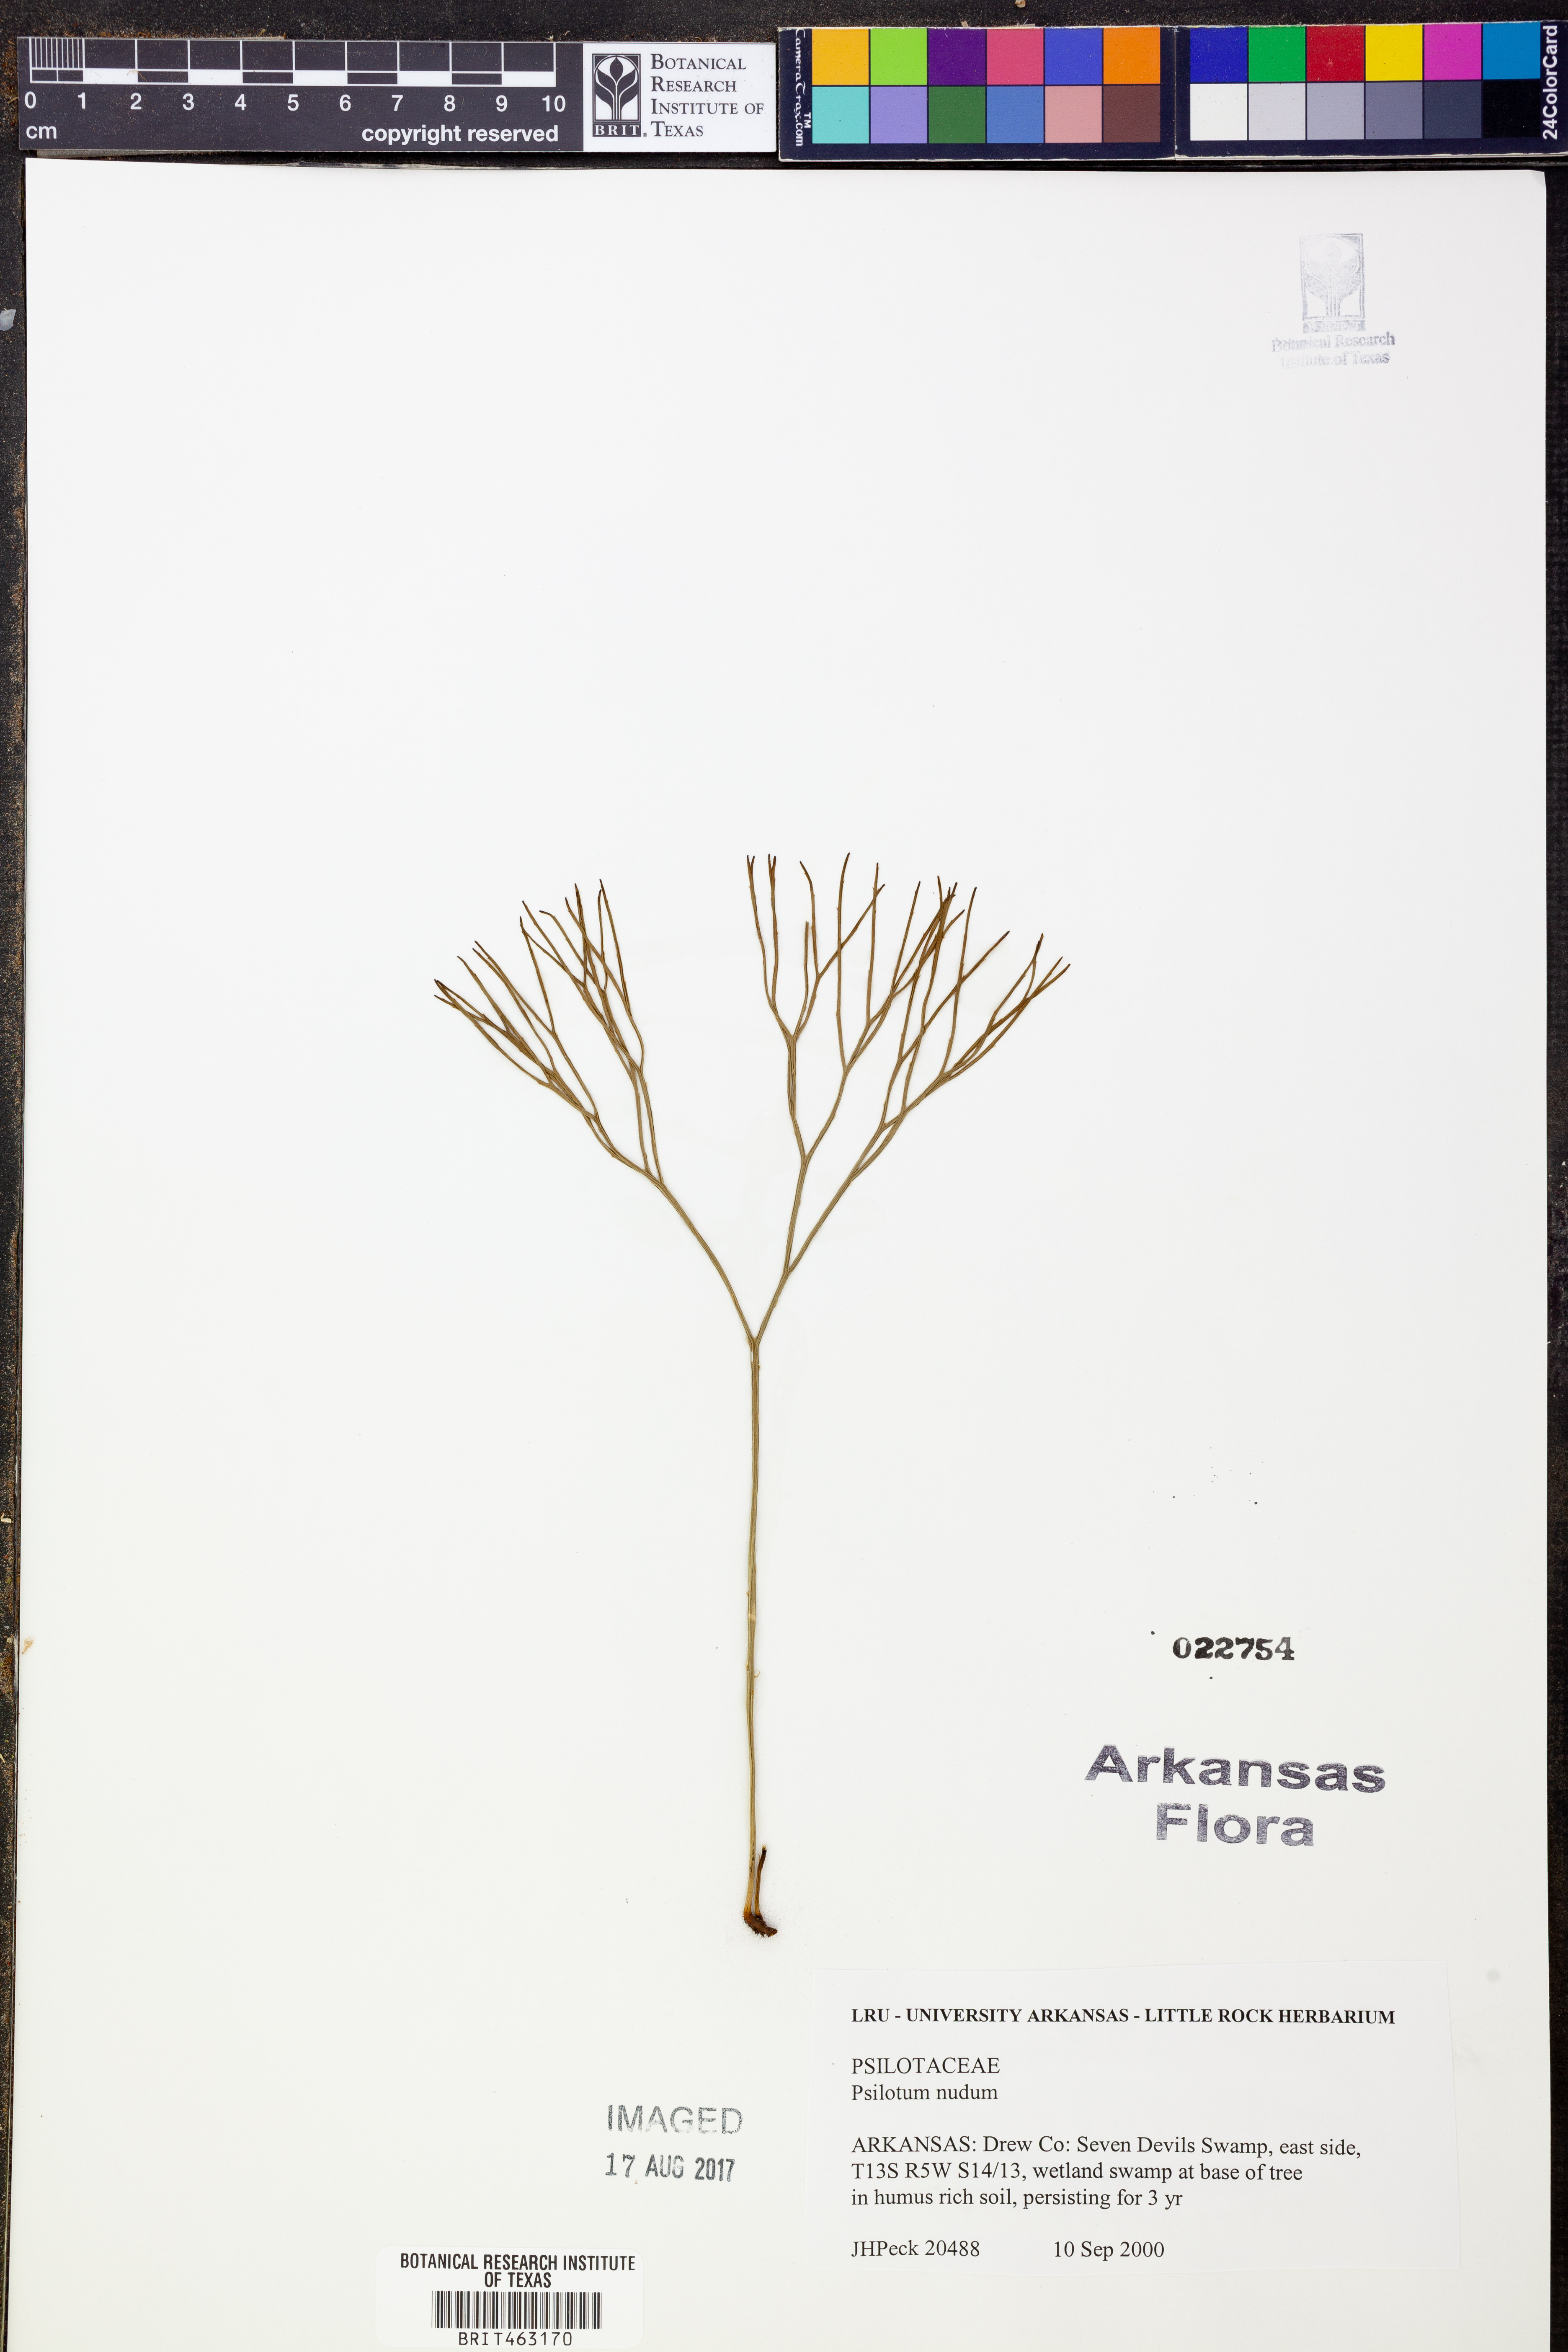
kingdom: Plantae
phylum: Tracheophyta
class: Polypodiopsida
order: Psilotales
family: Psilotaceae
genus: Psilotum
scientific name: Psilotum nudum
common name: Skeleton fork fern
